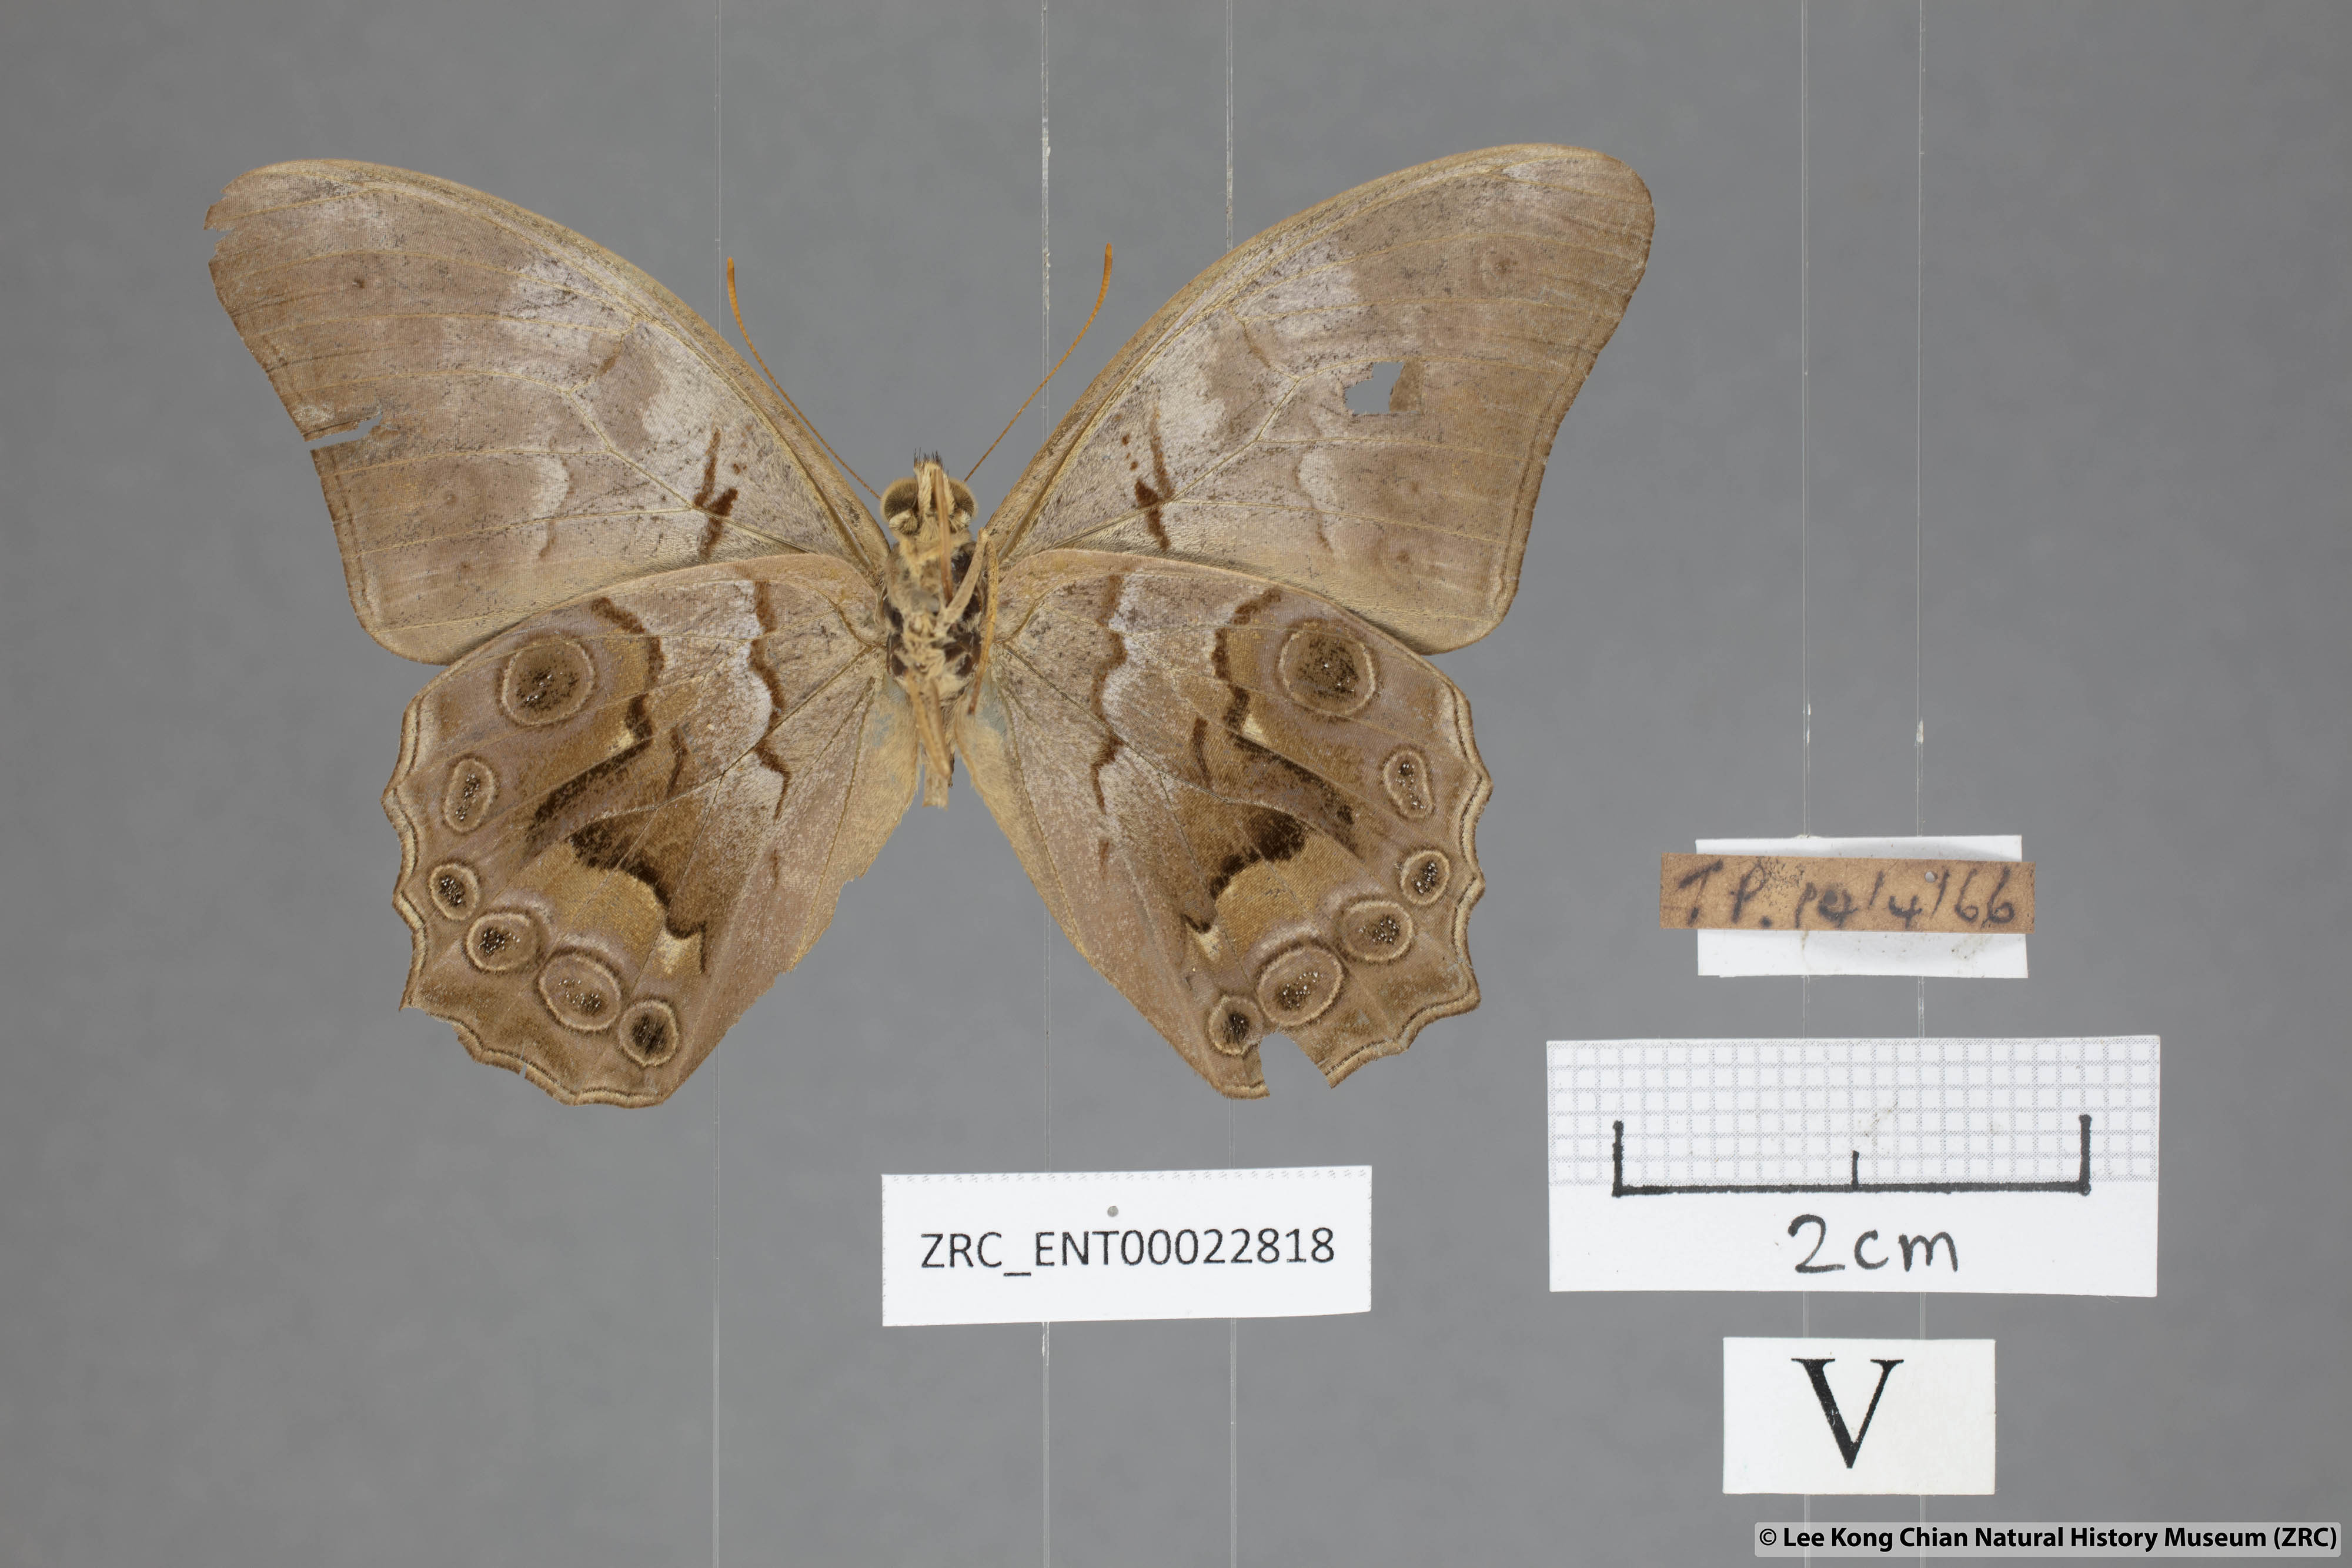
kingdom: Animalia
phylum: Arthropoda
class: Insecta
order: Lepidoptera
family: Nymphalidae
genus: Lethe
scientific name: Lethe chandica
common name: Angled red forester
